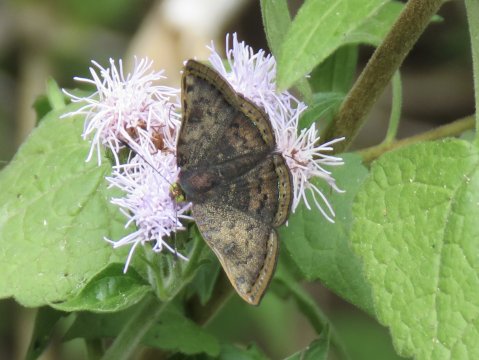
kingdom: Animalia
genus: Caria
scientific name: Caria ino
